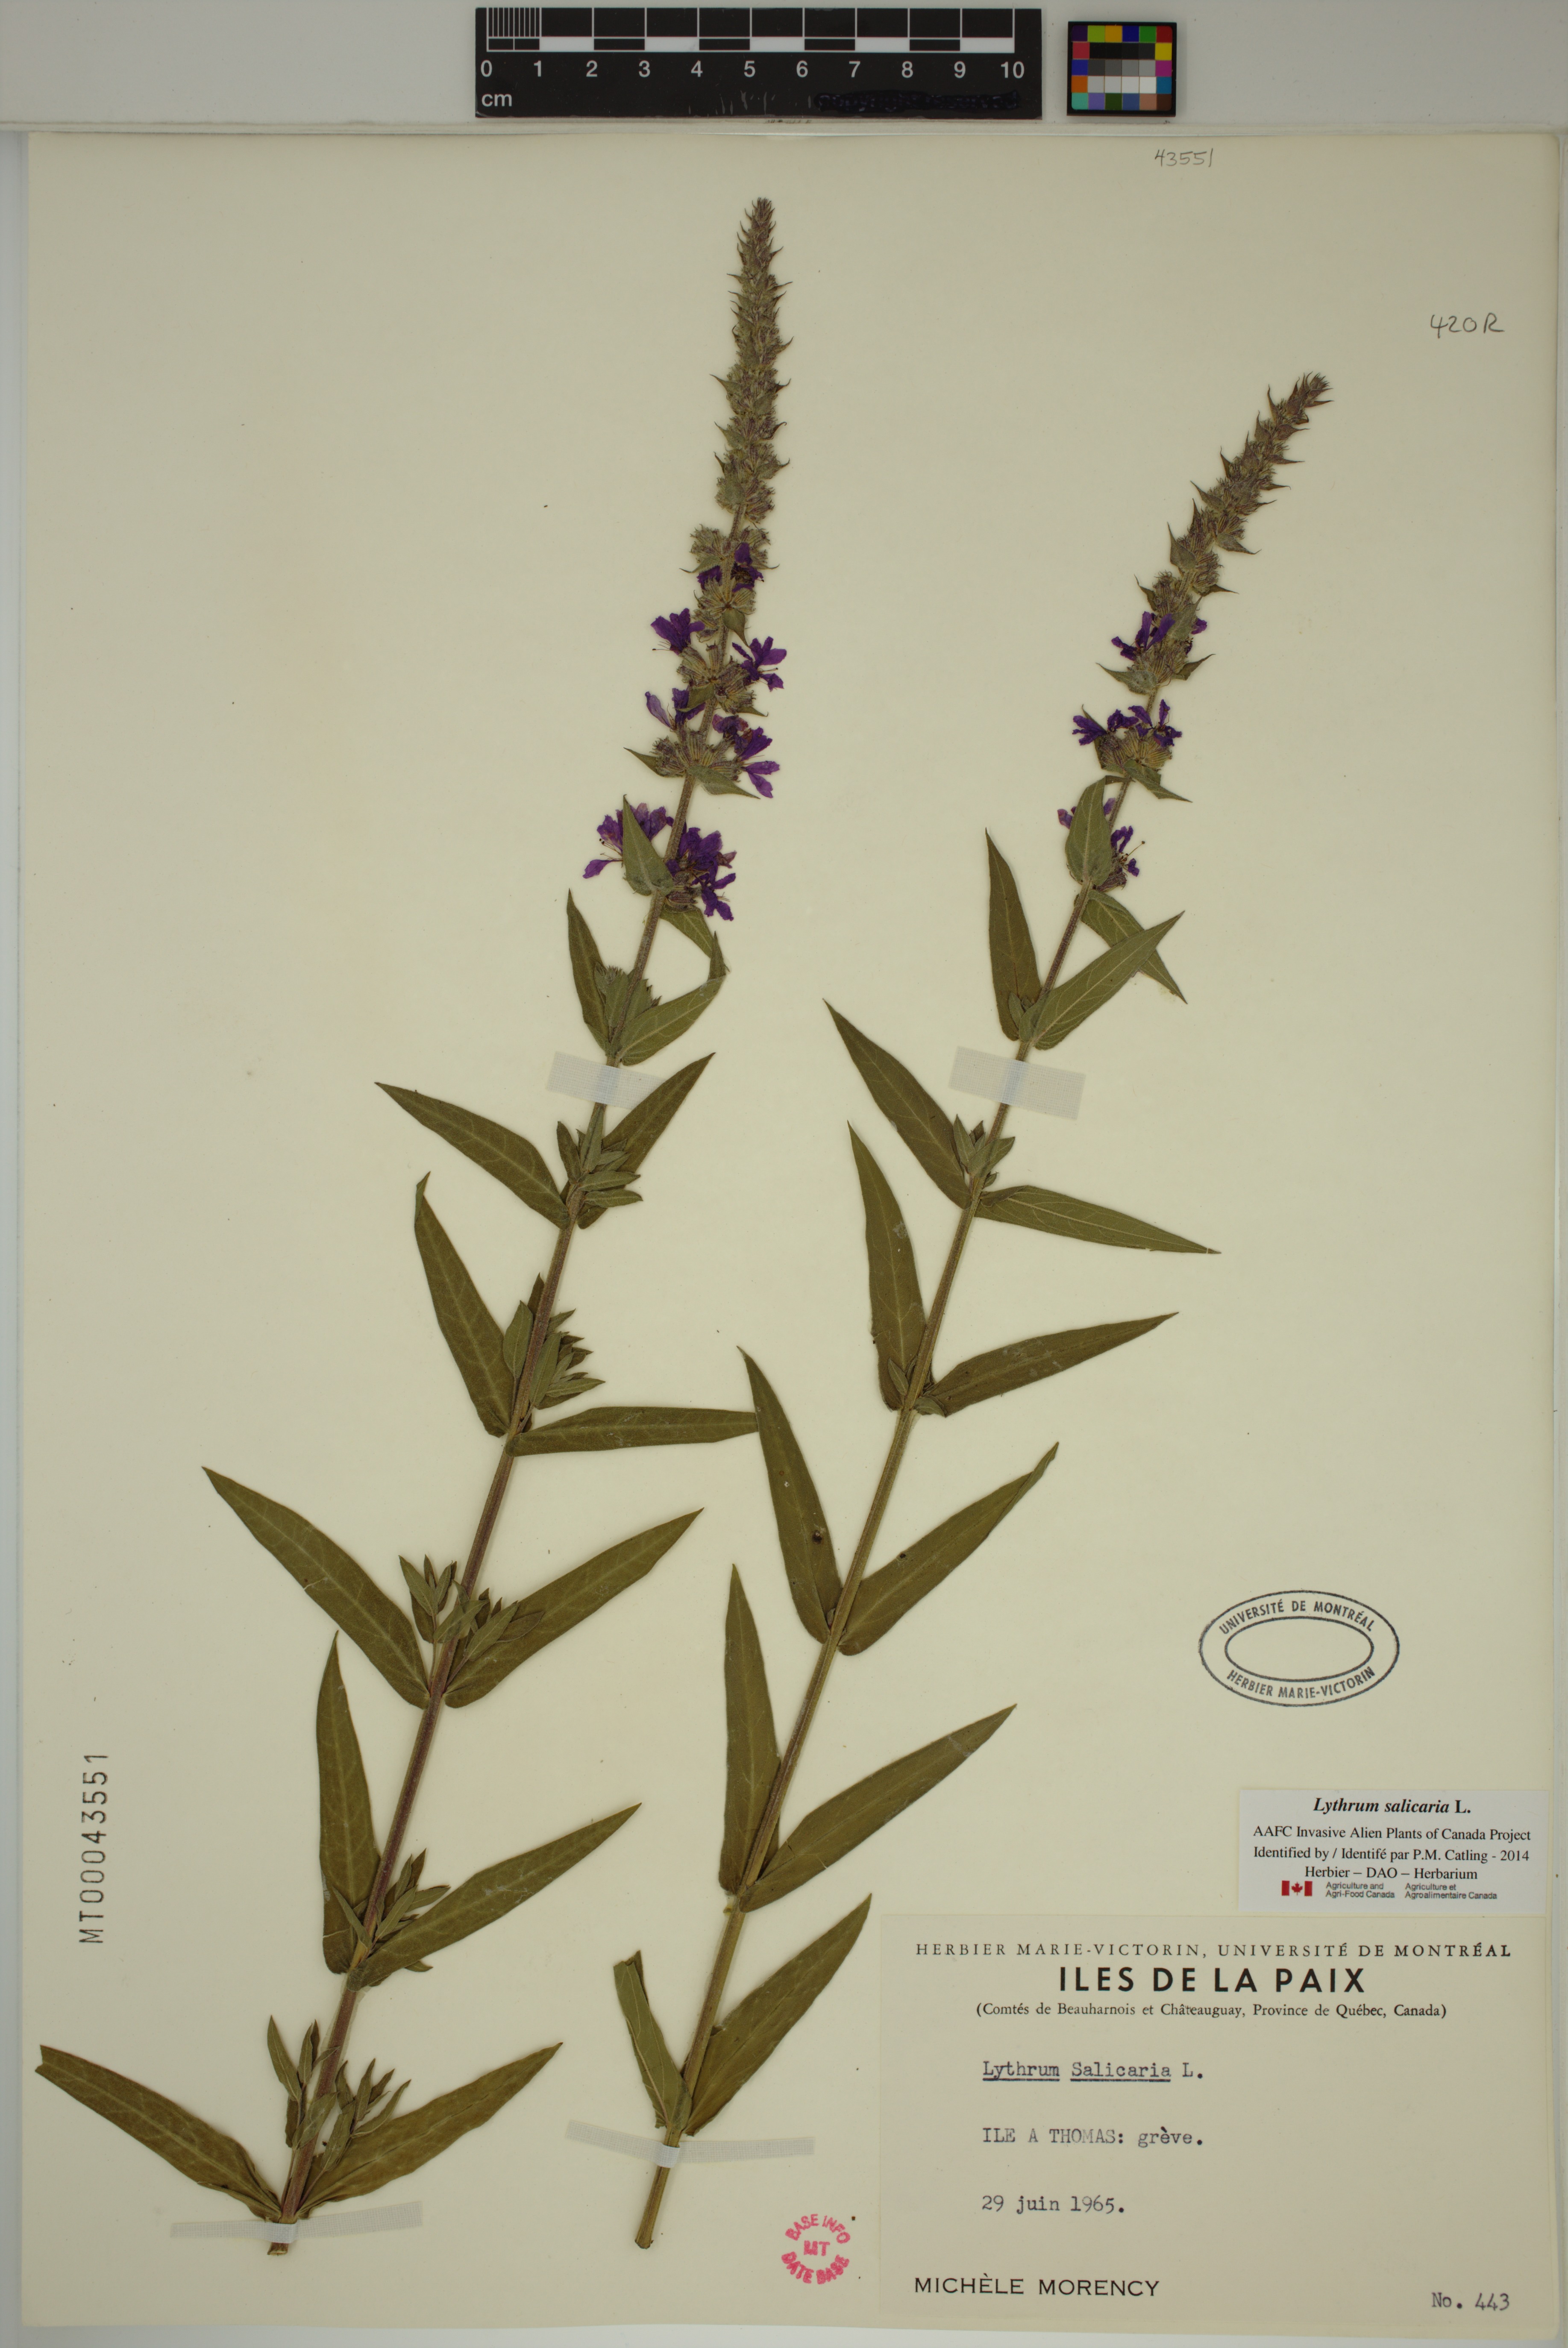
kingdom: Plantae
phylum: Tracheophyta
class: Magnoliopsida
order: Myrtales
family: Lythraceae
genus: Lythrum
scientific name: Lythrum salicaria
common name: Purple loosestrife
